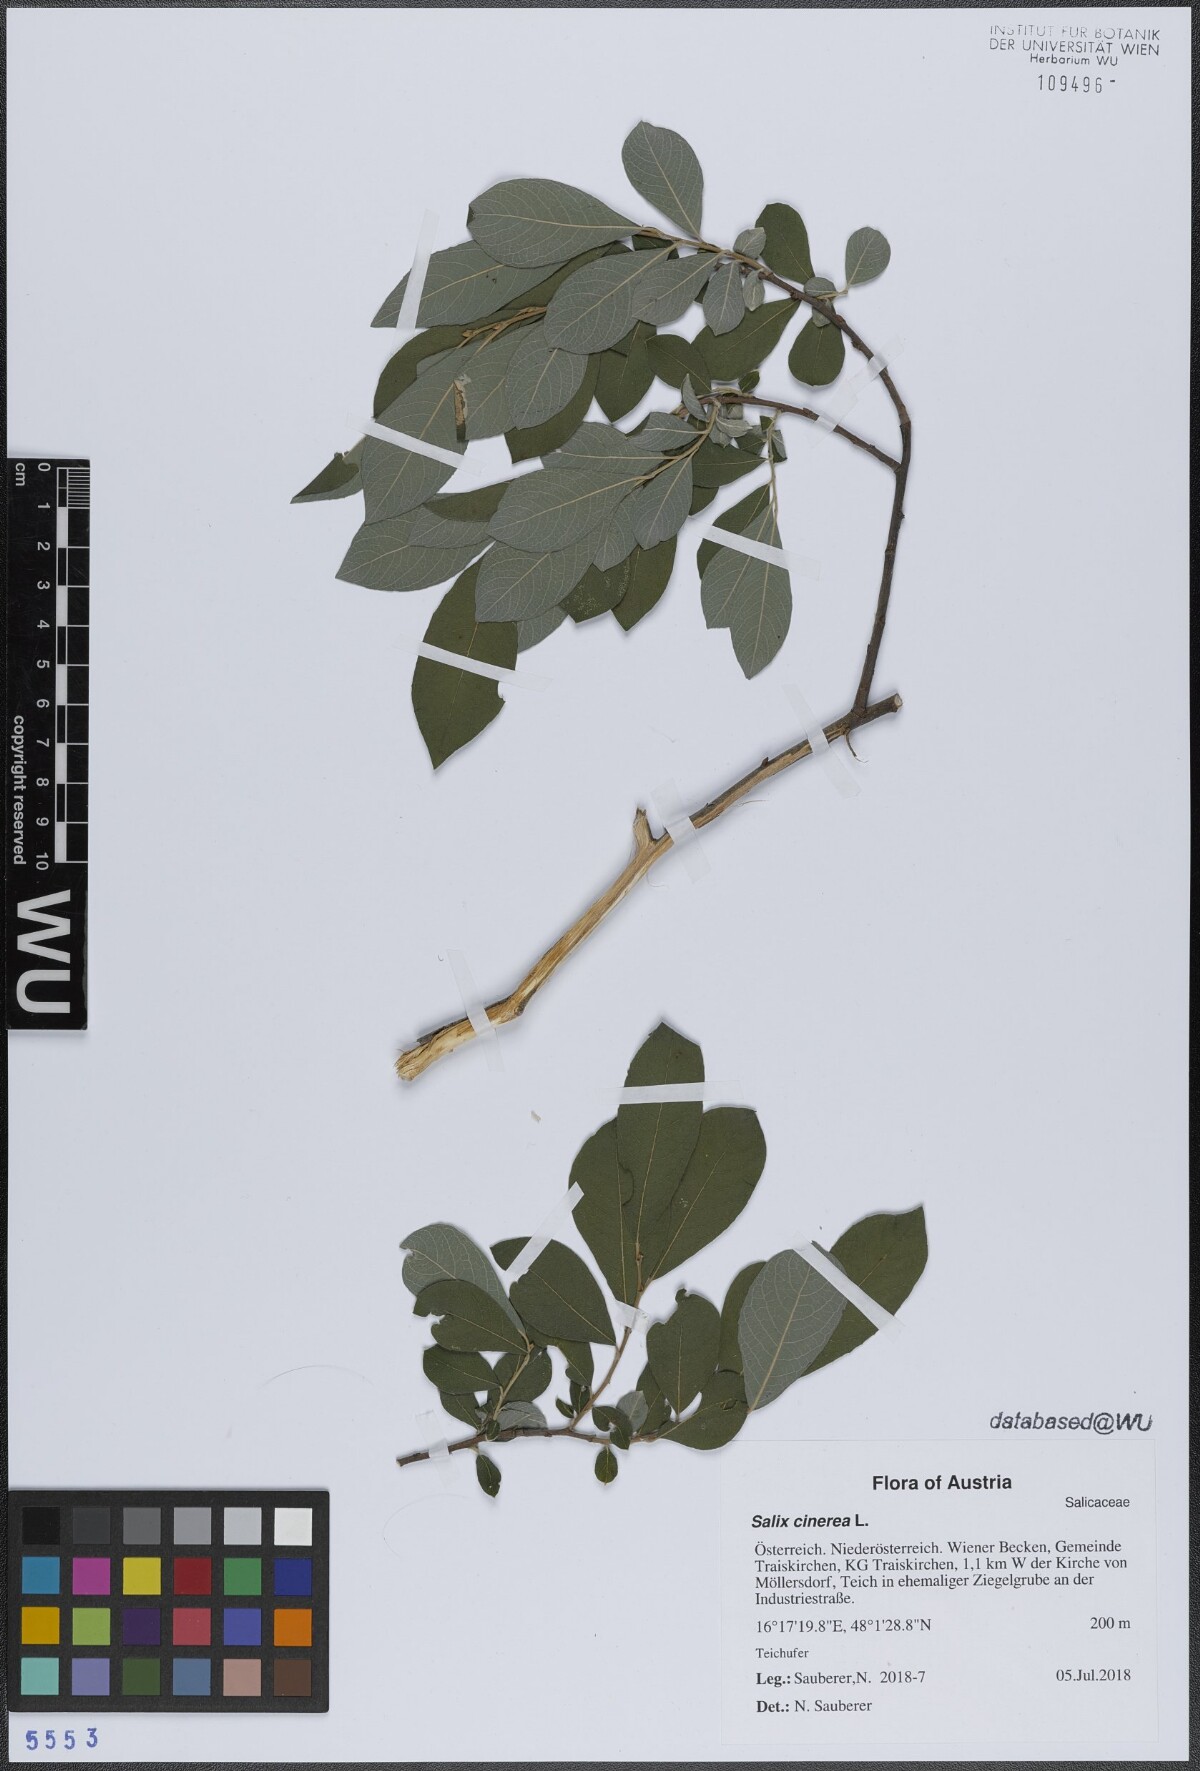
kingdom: Plantae
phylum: Tracheophyta
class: Magnoliopsida
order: Malpighiales
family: Salicaceae
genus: Salix
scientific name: Salix cinerea
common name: Common sallow
